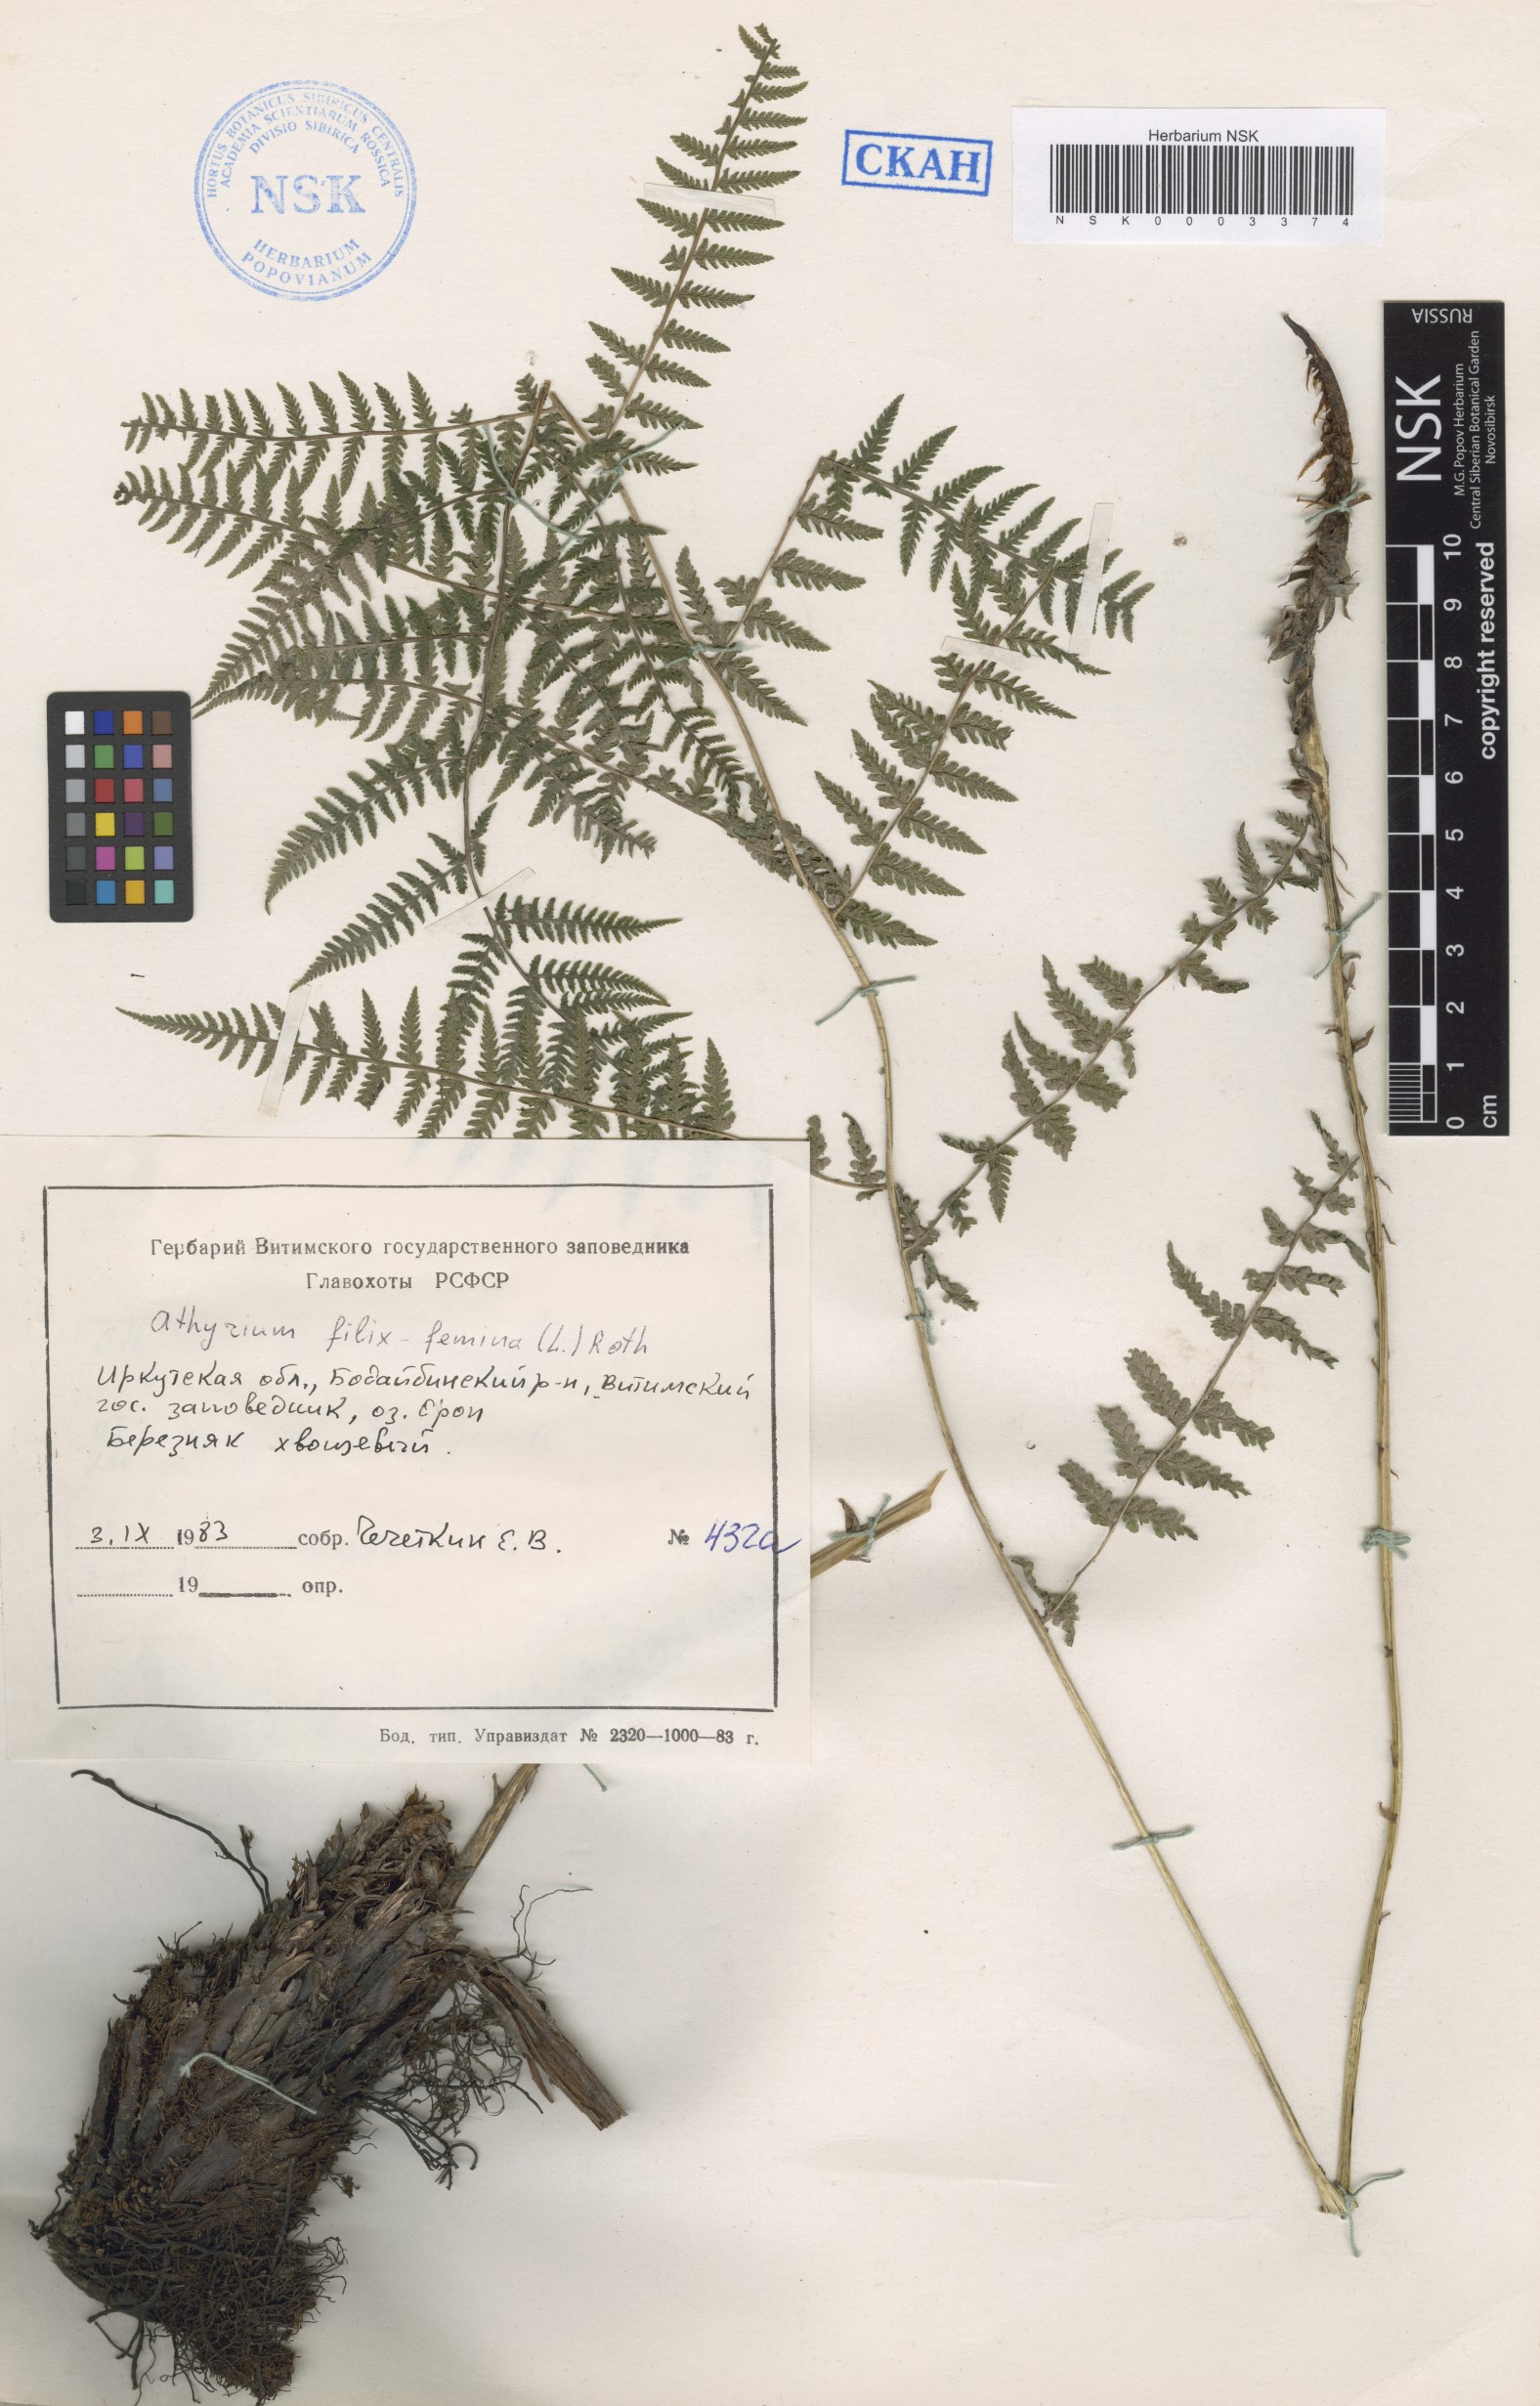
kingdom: Plantae
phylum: Tracheophyta
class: Polypodiopsida
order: Polypodiales
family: Athyriaceae
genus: Athyrium
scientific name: Athyrium filix-femina
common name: Lady fern
